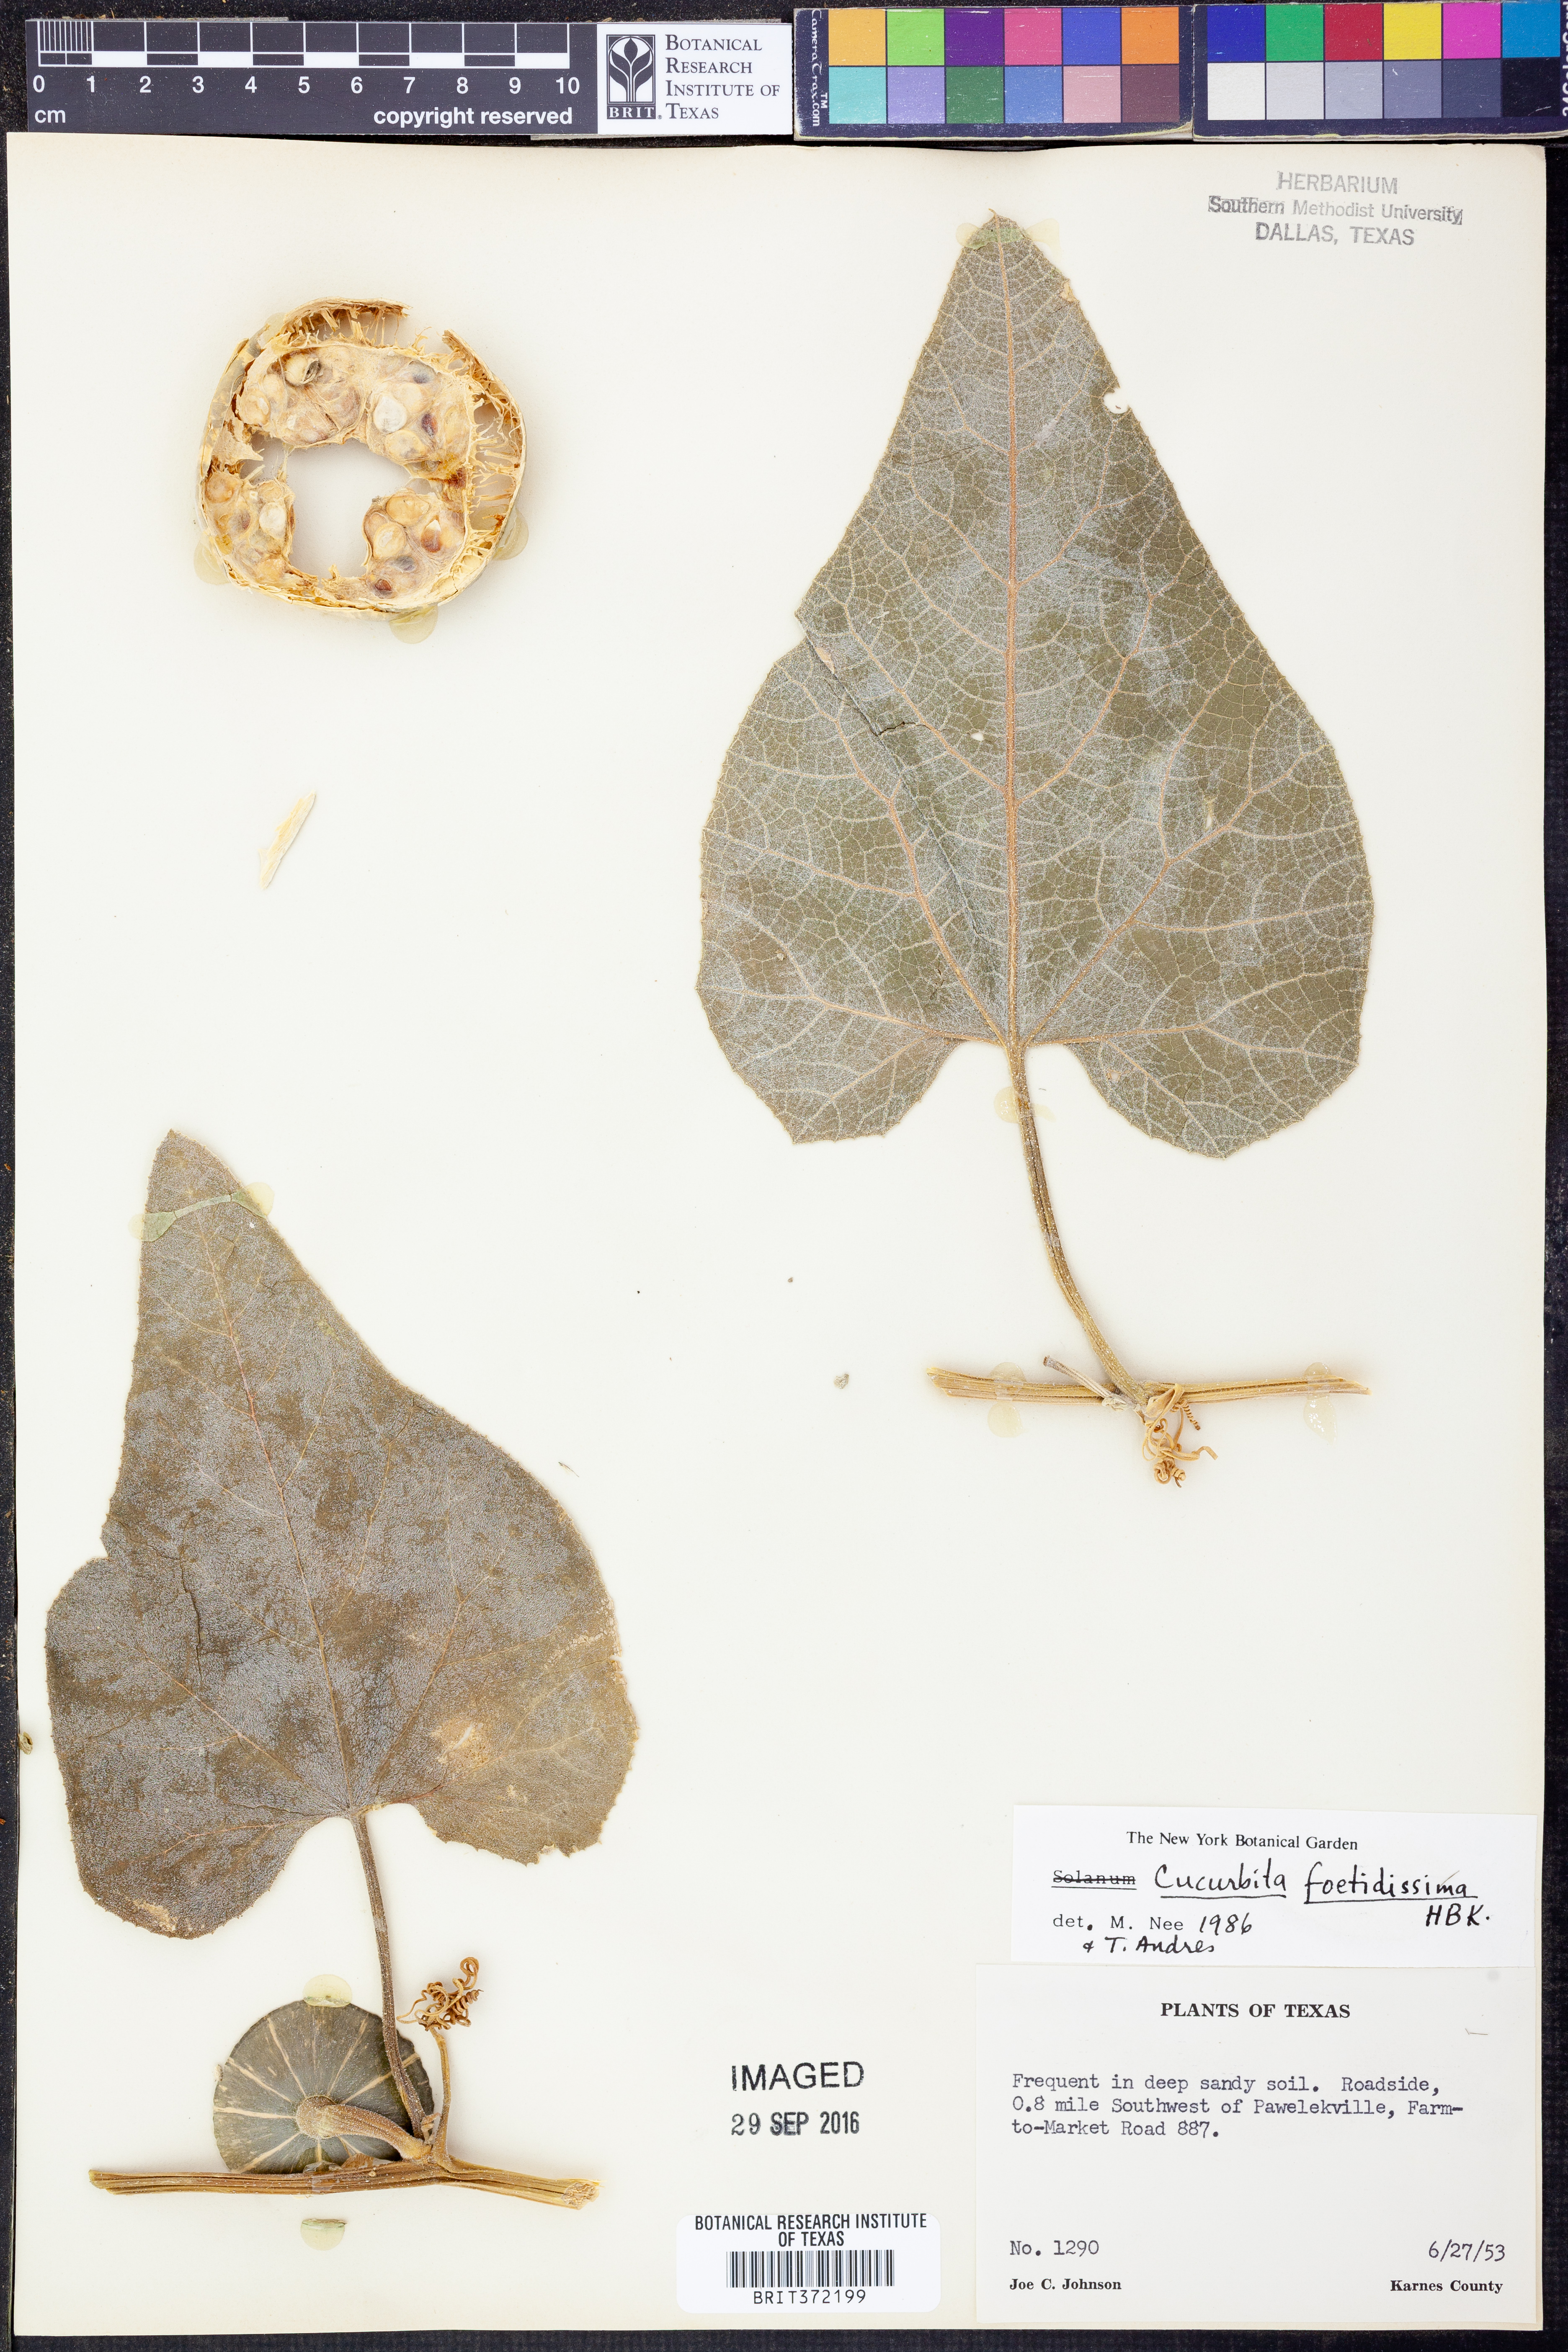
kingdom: Plantae
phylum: Tracheophyta
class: Magnoliopsida
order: Cucurbitales
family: Cucurbitaceae
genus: Cucurbita
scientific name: Cucurbita foetidissima
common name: Buffalo gourd
